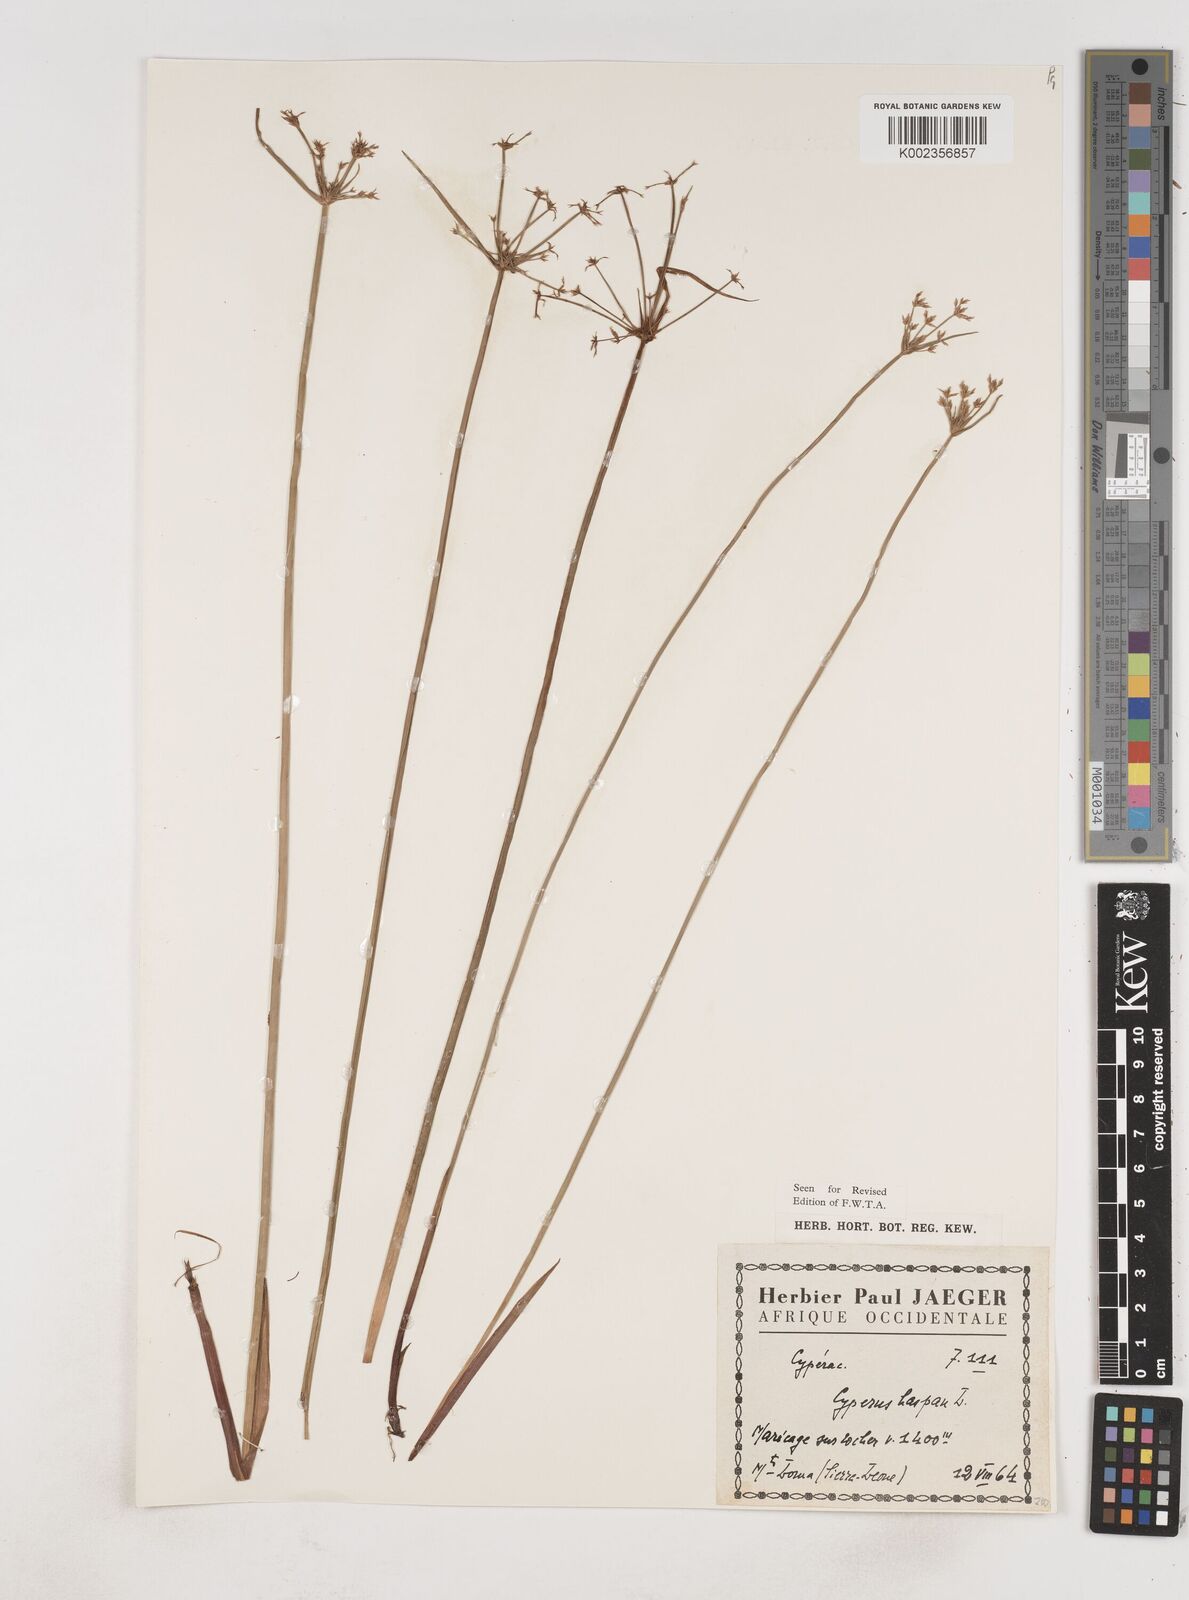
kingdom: Plantae
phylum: Tracheophyta
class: Liliopsida
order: Poales
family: Cyperaceae
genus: Cyperus
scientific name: Cyperus haspan
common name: Haspan flatsedge
